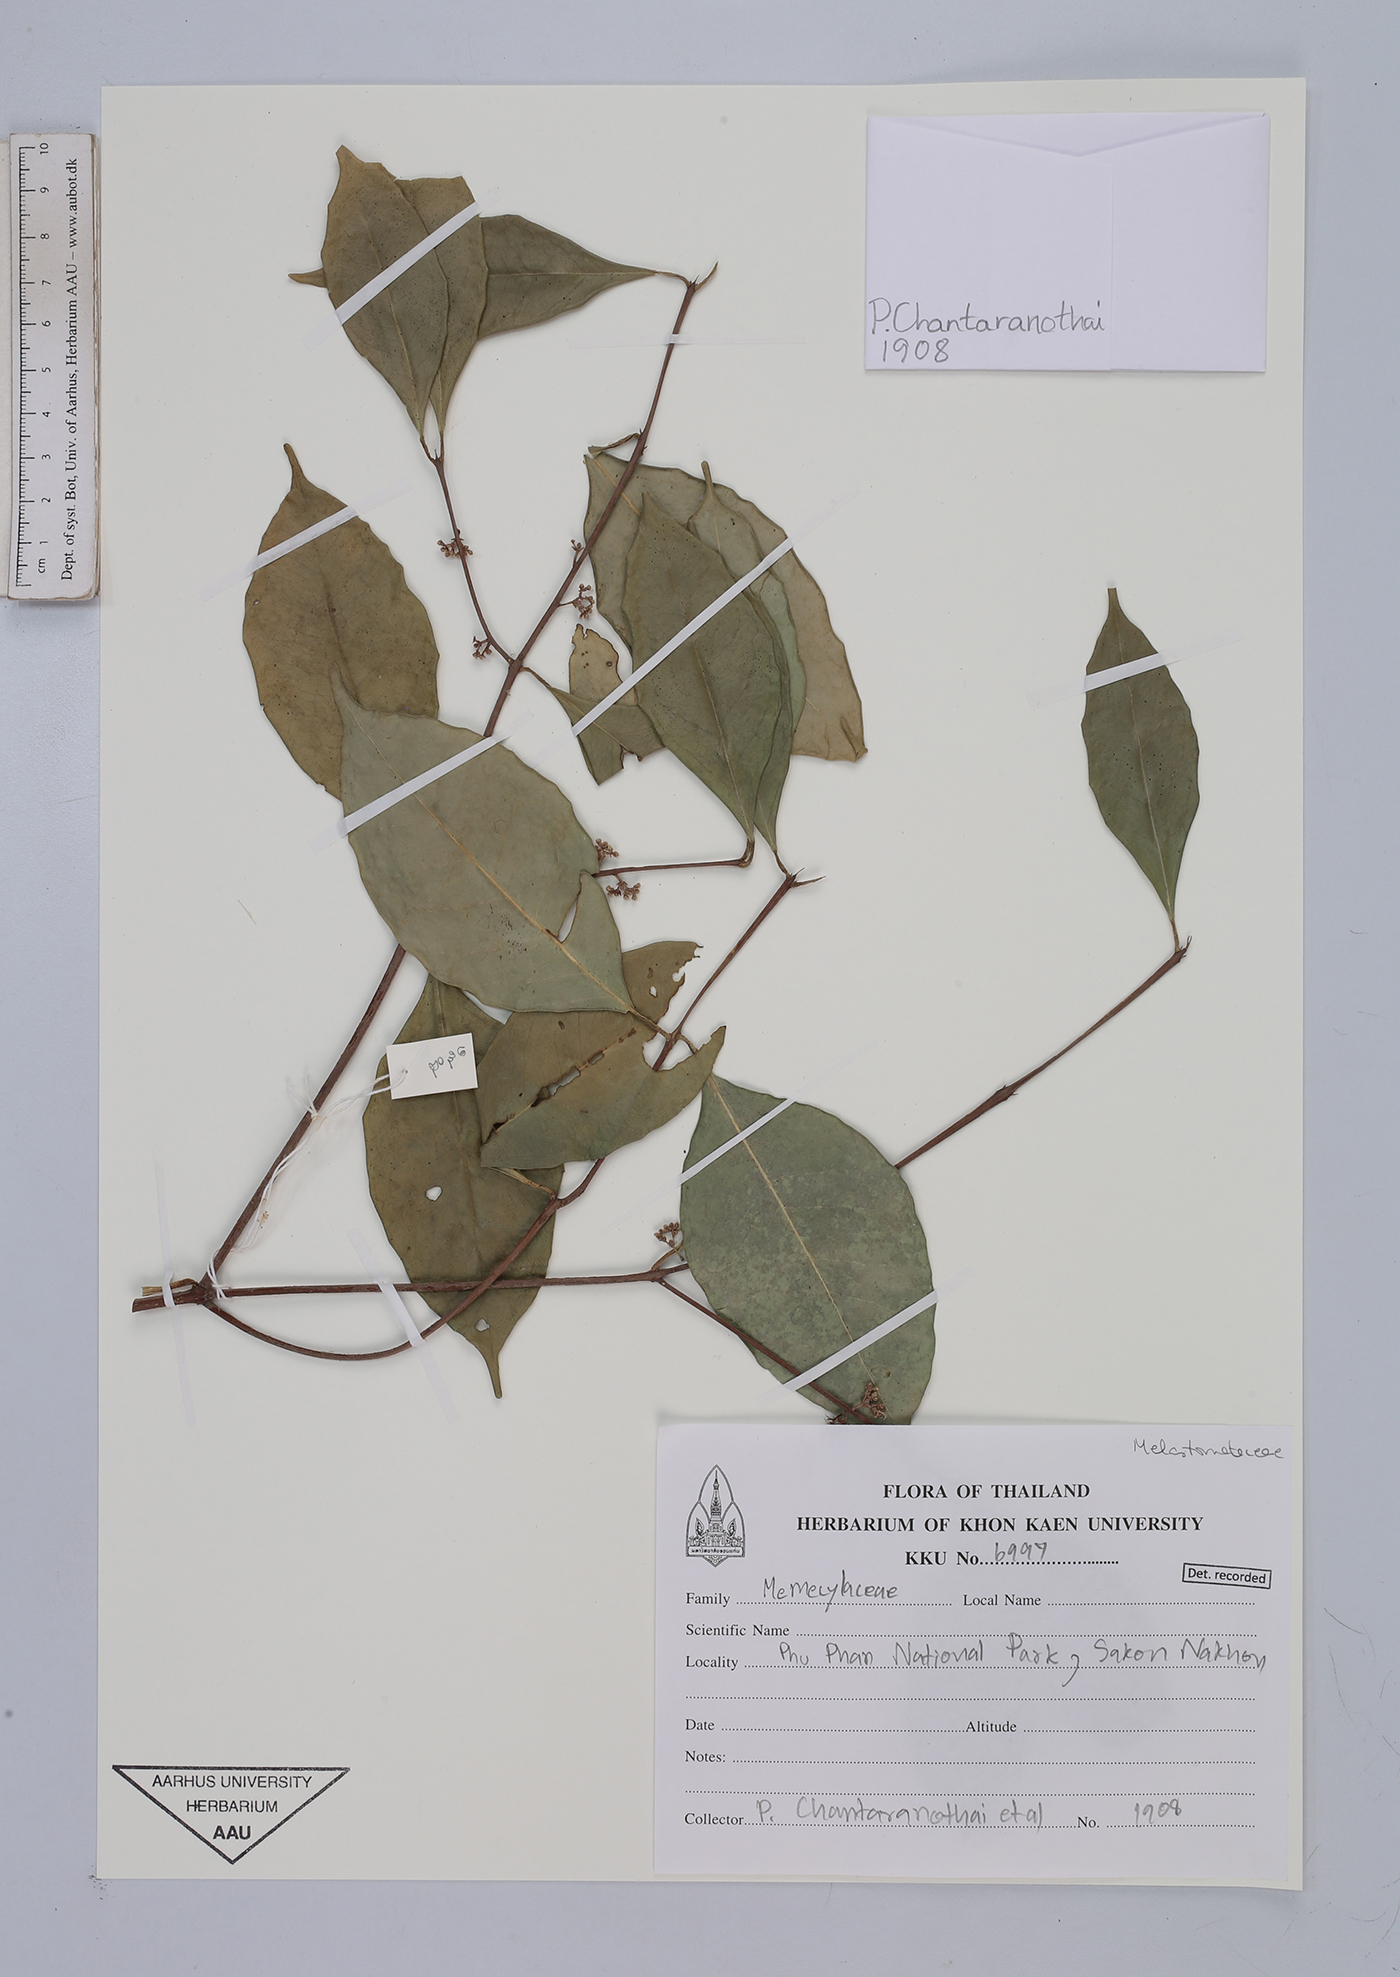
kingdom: Plantae
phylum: Tracheophyta
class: Magnoliopsida
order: Myrtales
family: Melastomataceae
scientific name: Melastomataceae
